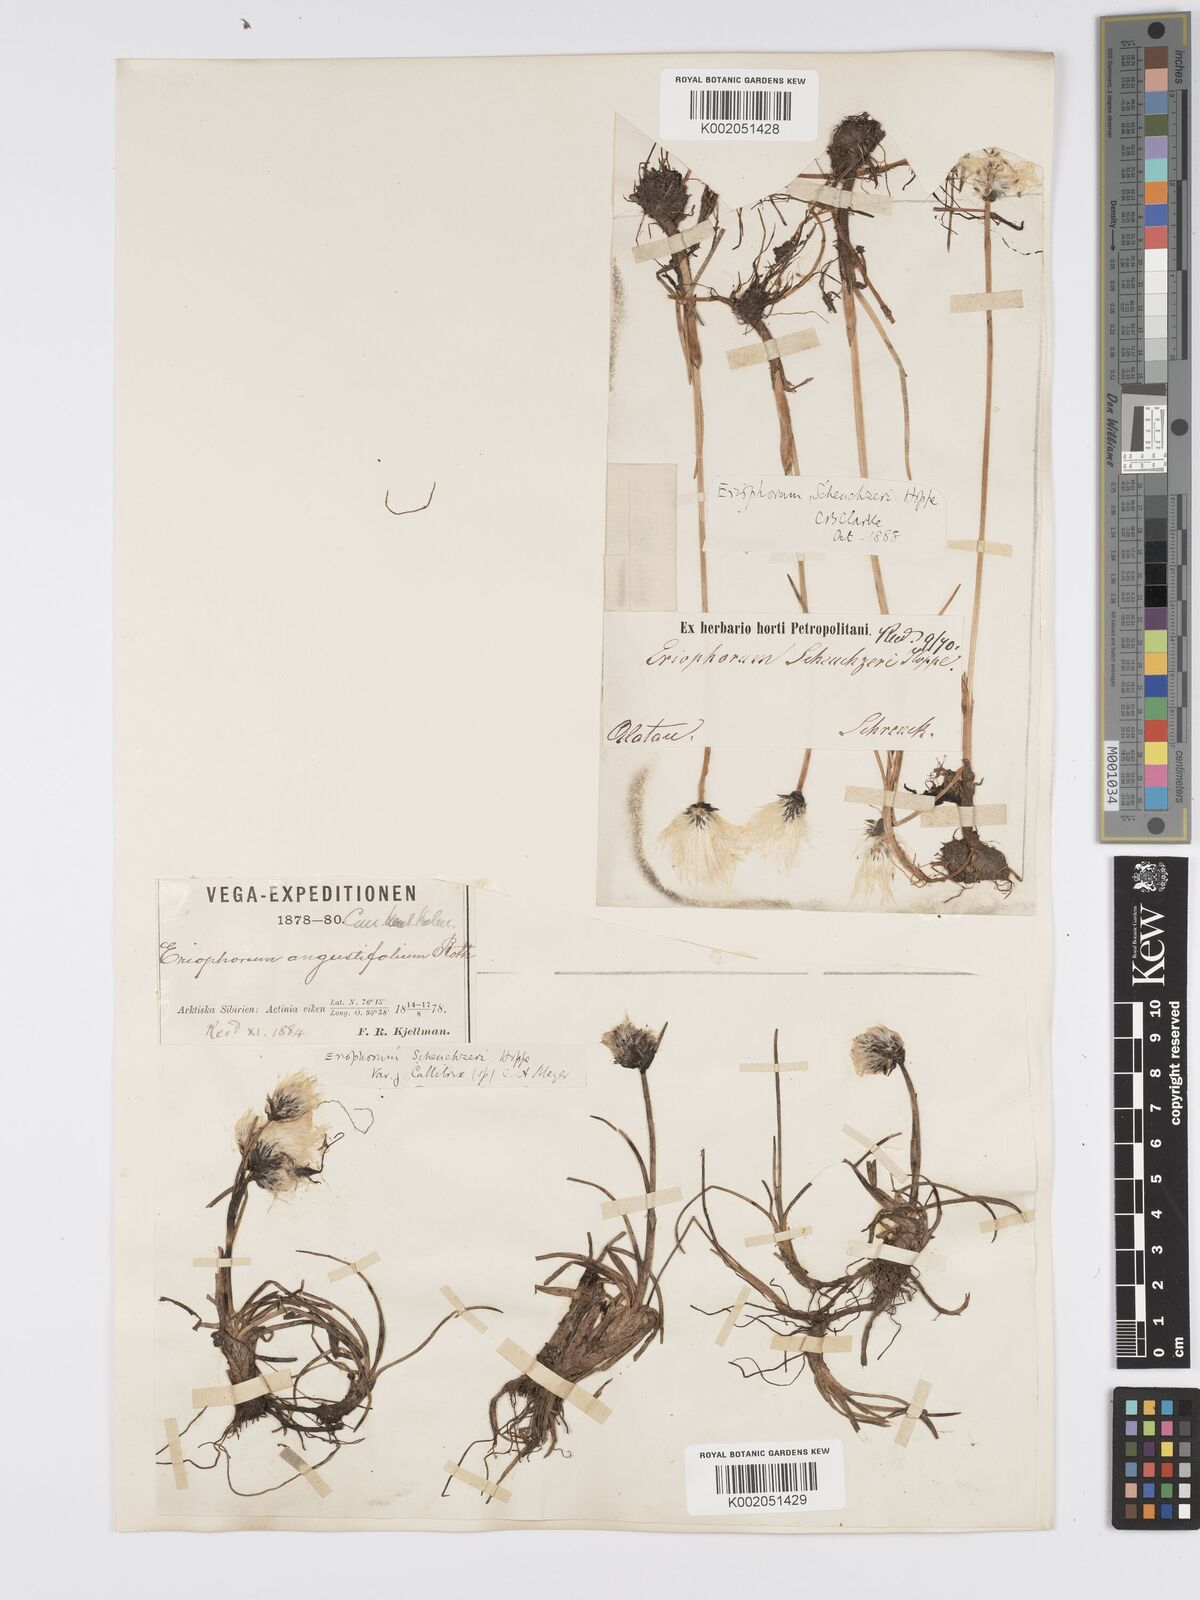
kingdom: Plantae
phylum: Tracheophyta
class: Liliopsida
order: Poales
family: Cyperaceae
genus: Eriophorum
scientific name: Eriophorum scheuchzeri
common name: Scheuchzer's cottongrass
